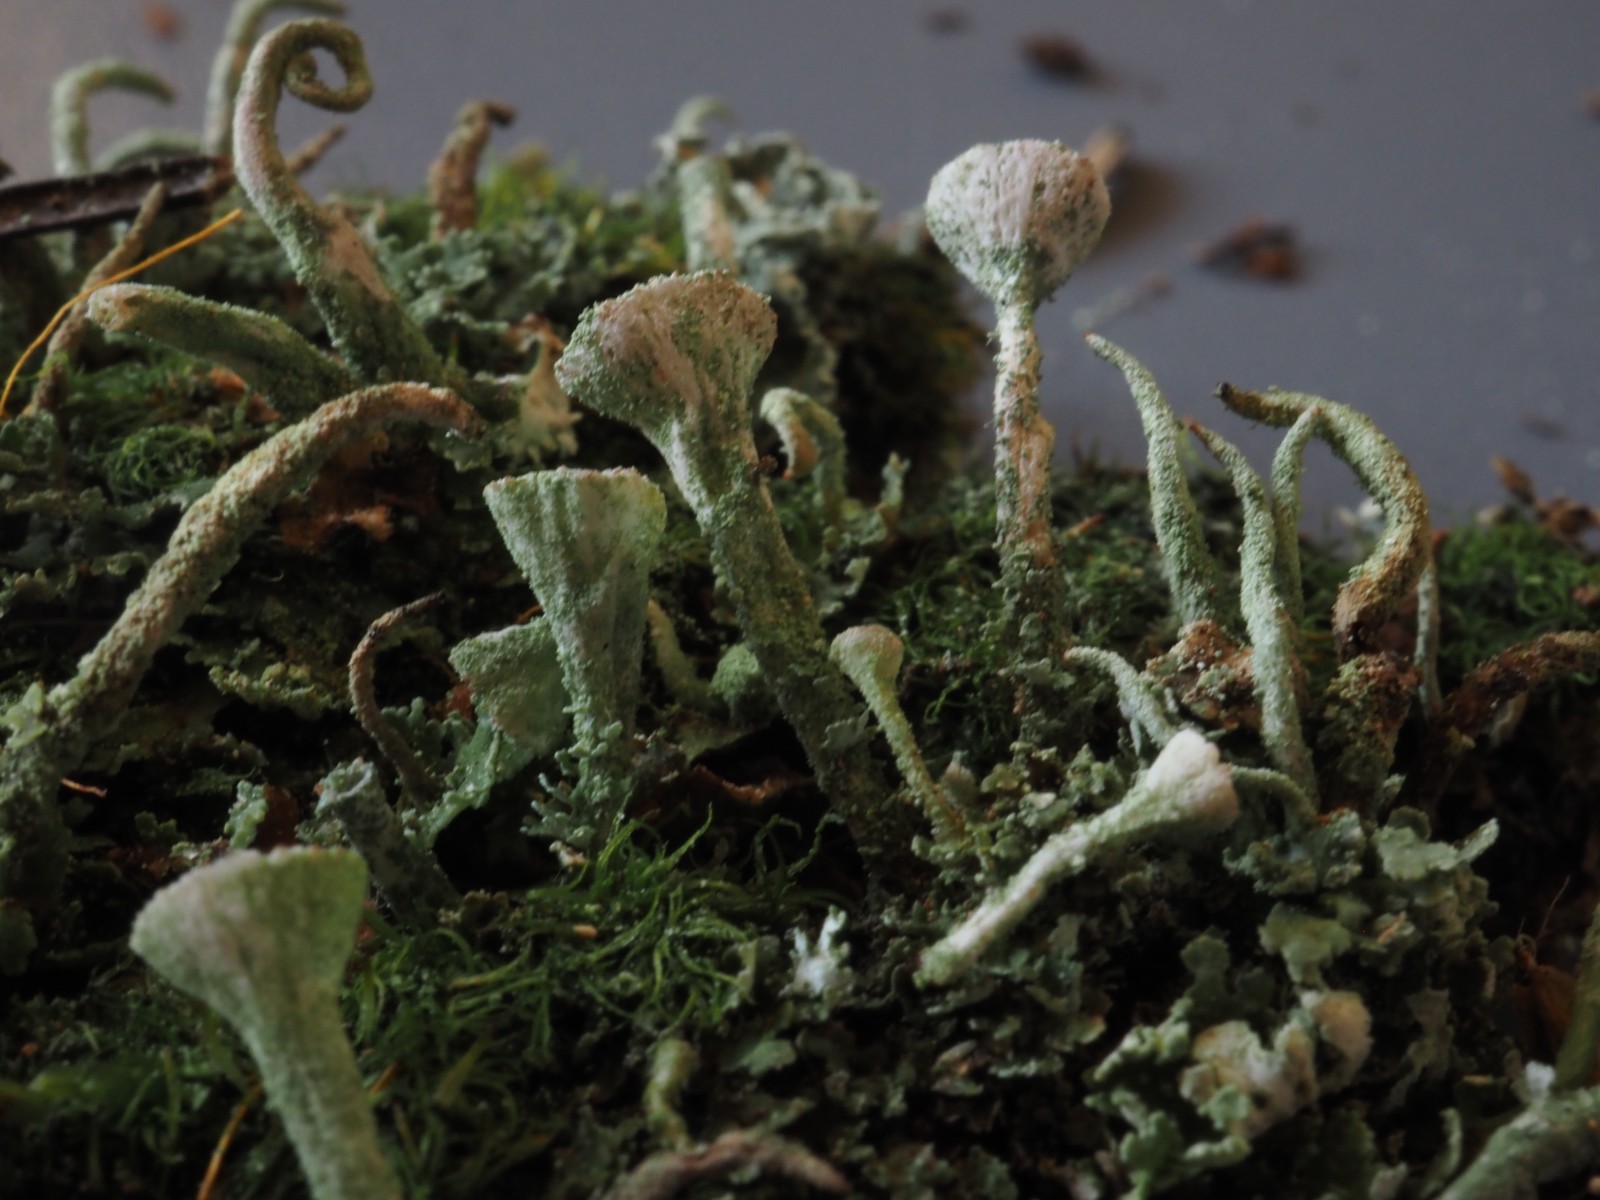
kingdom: Fungi
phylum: Ascomycota
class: Lecanoromycetes
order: Lecanorales
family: Cladoniaceae
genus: Cladonia
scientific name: Cladonia
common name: brungrøn bægerlav
